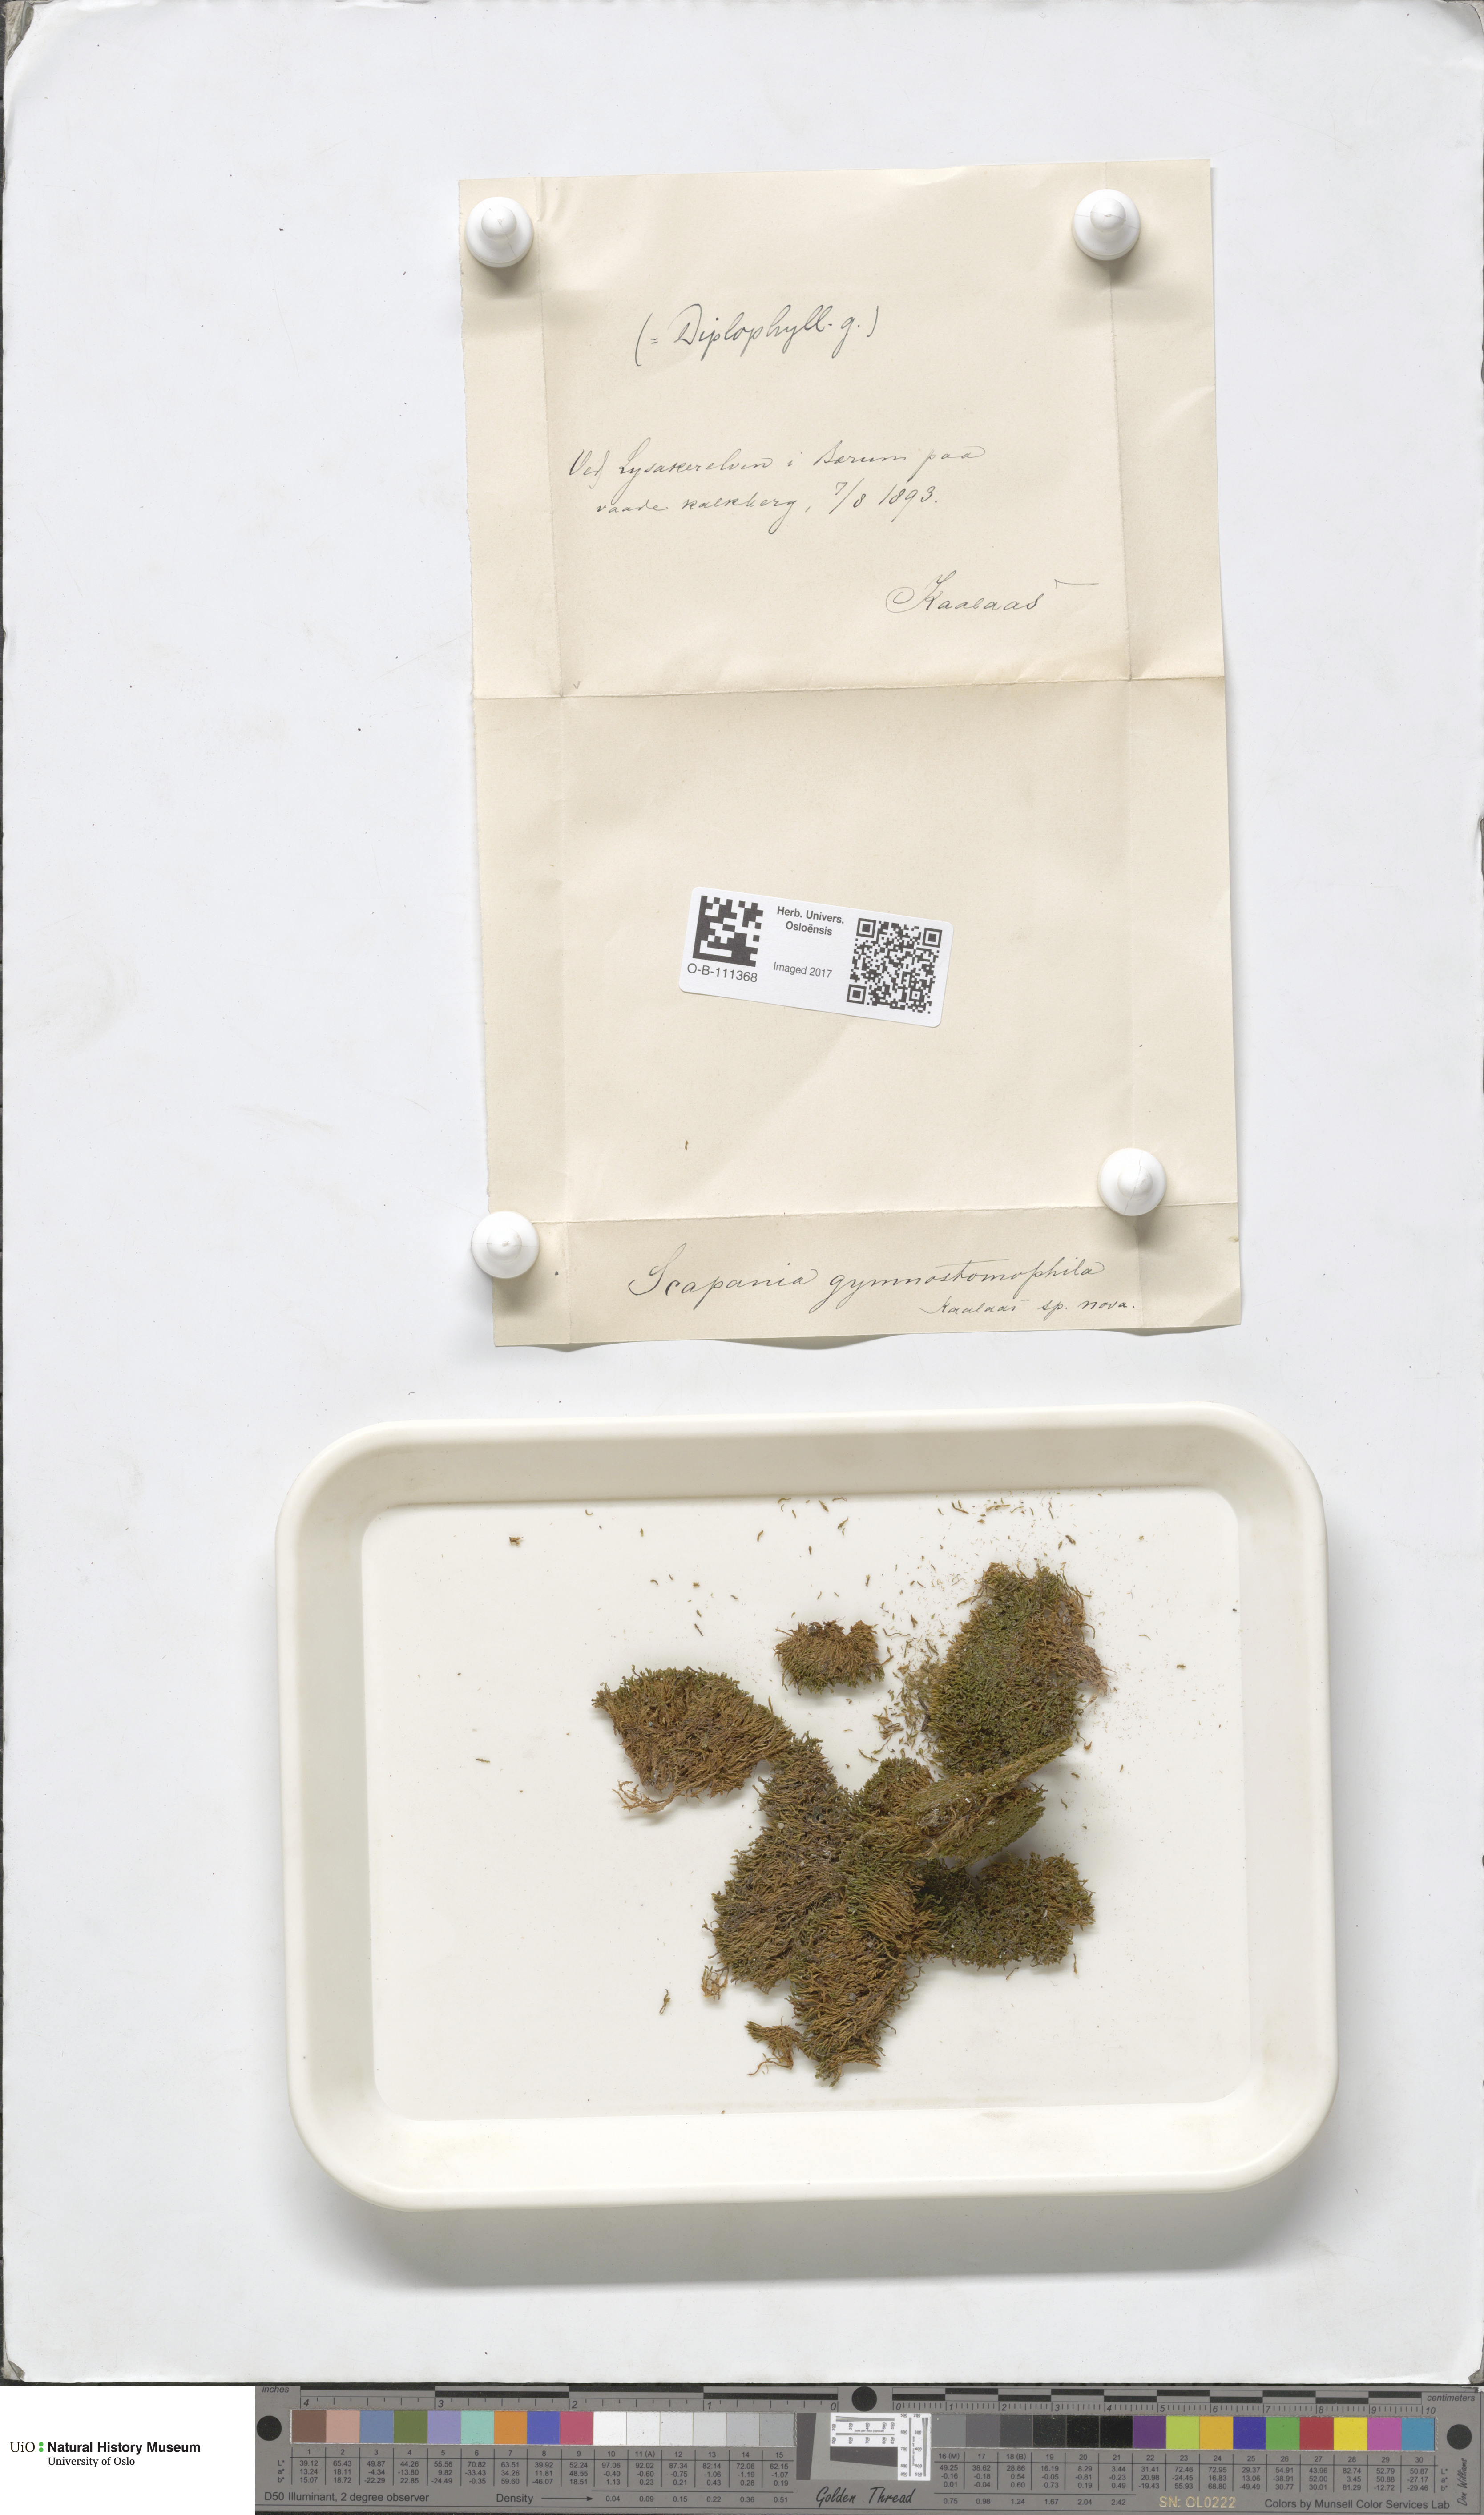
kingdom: Plantae
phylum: Marchantiophyta
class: Jungermanniopsida
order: Jungermanniales
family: Scapaniaceae
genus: Scapania
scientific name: Scapania gymnostomophila
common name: Narrow-lobed earwort
